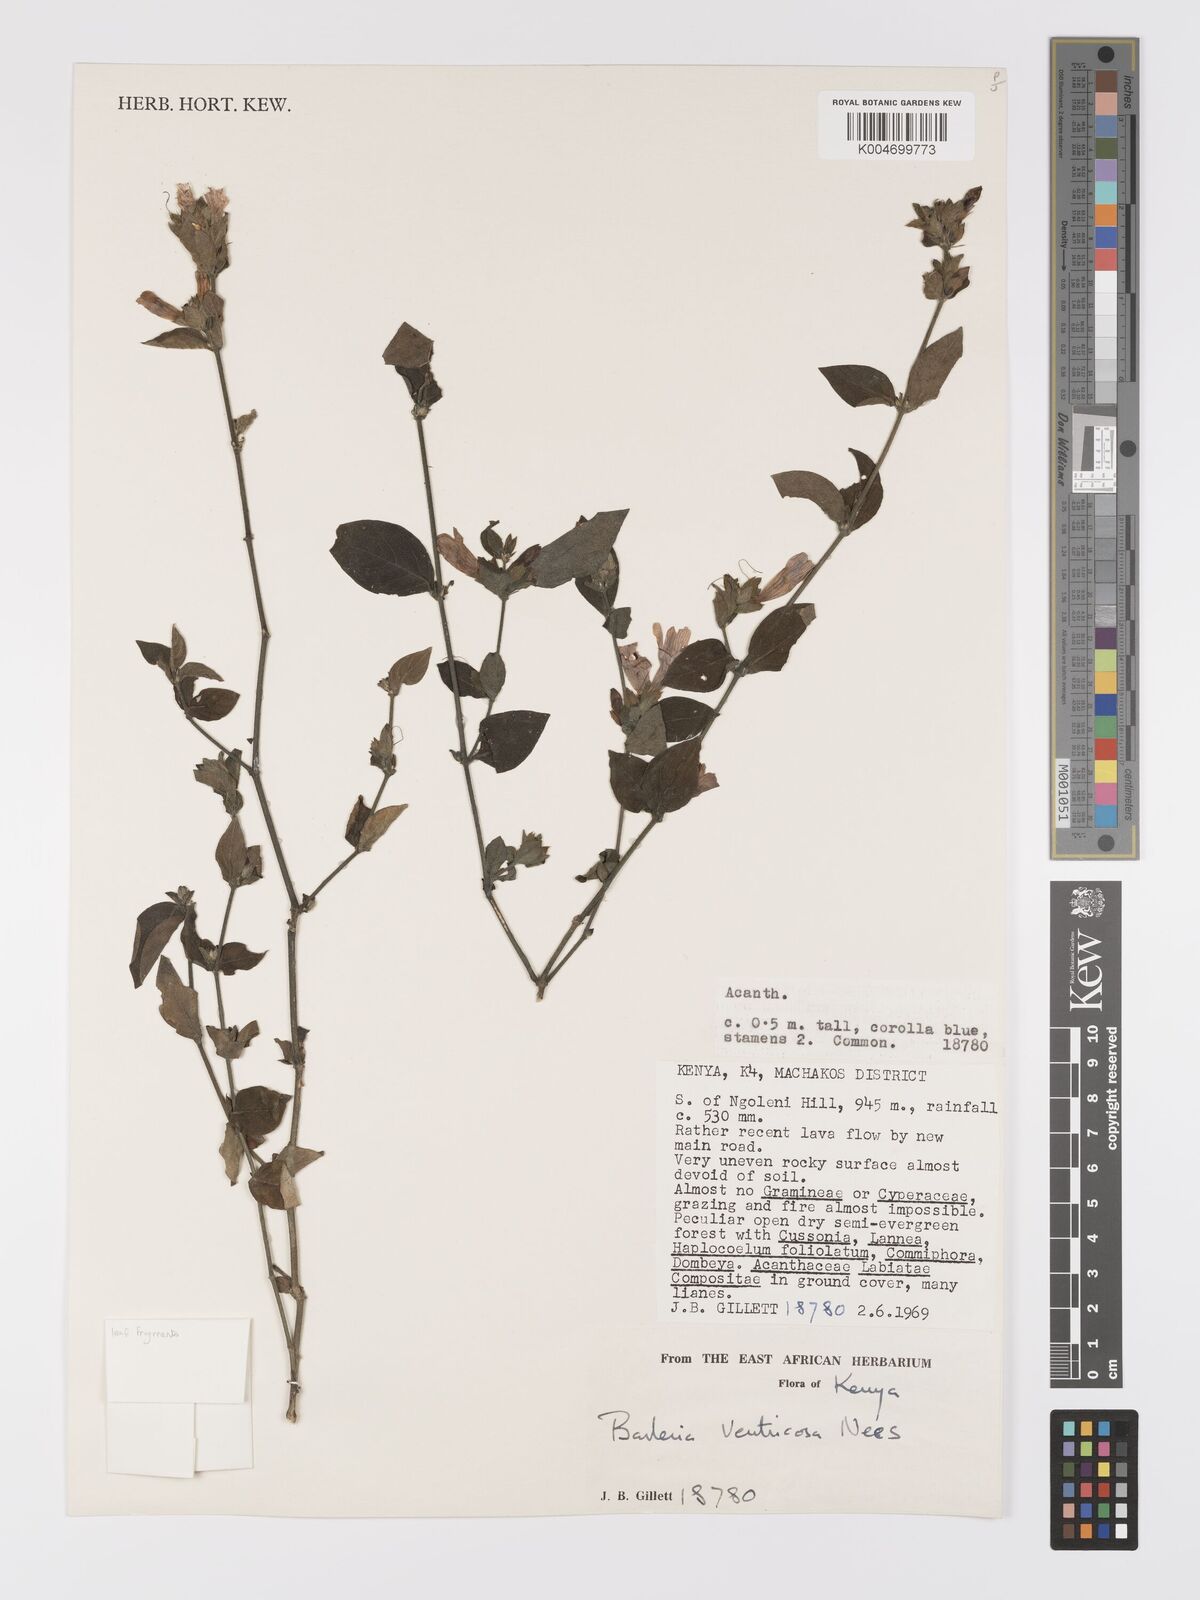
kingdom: Plantae
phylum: Tracheophyta
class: Magnoliopsida
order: Lamiales
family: Acanthaceae
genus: Barleria
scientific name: Barleria ventricosa
